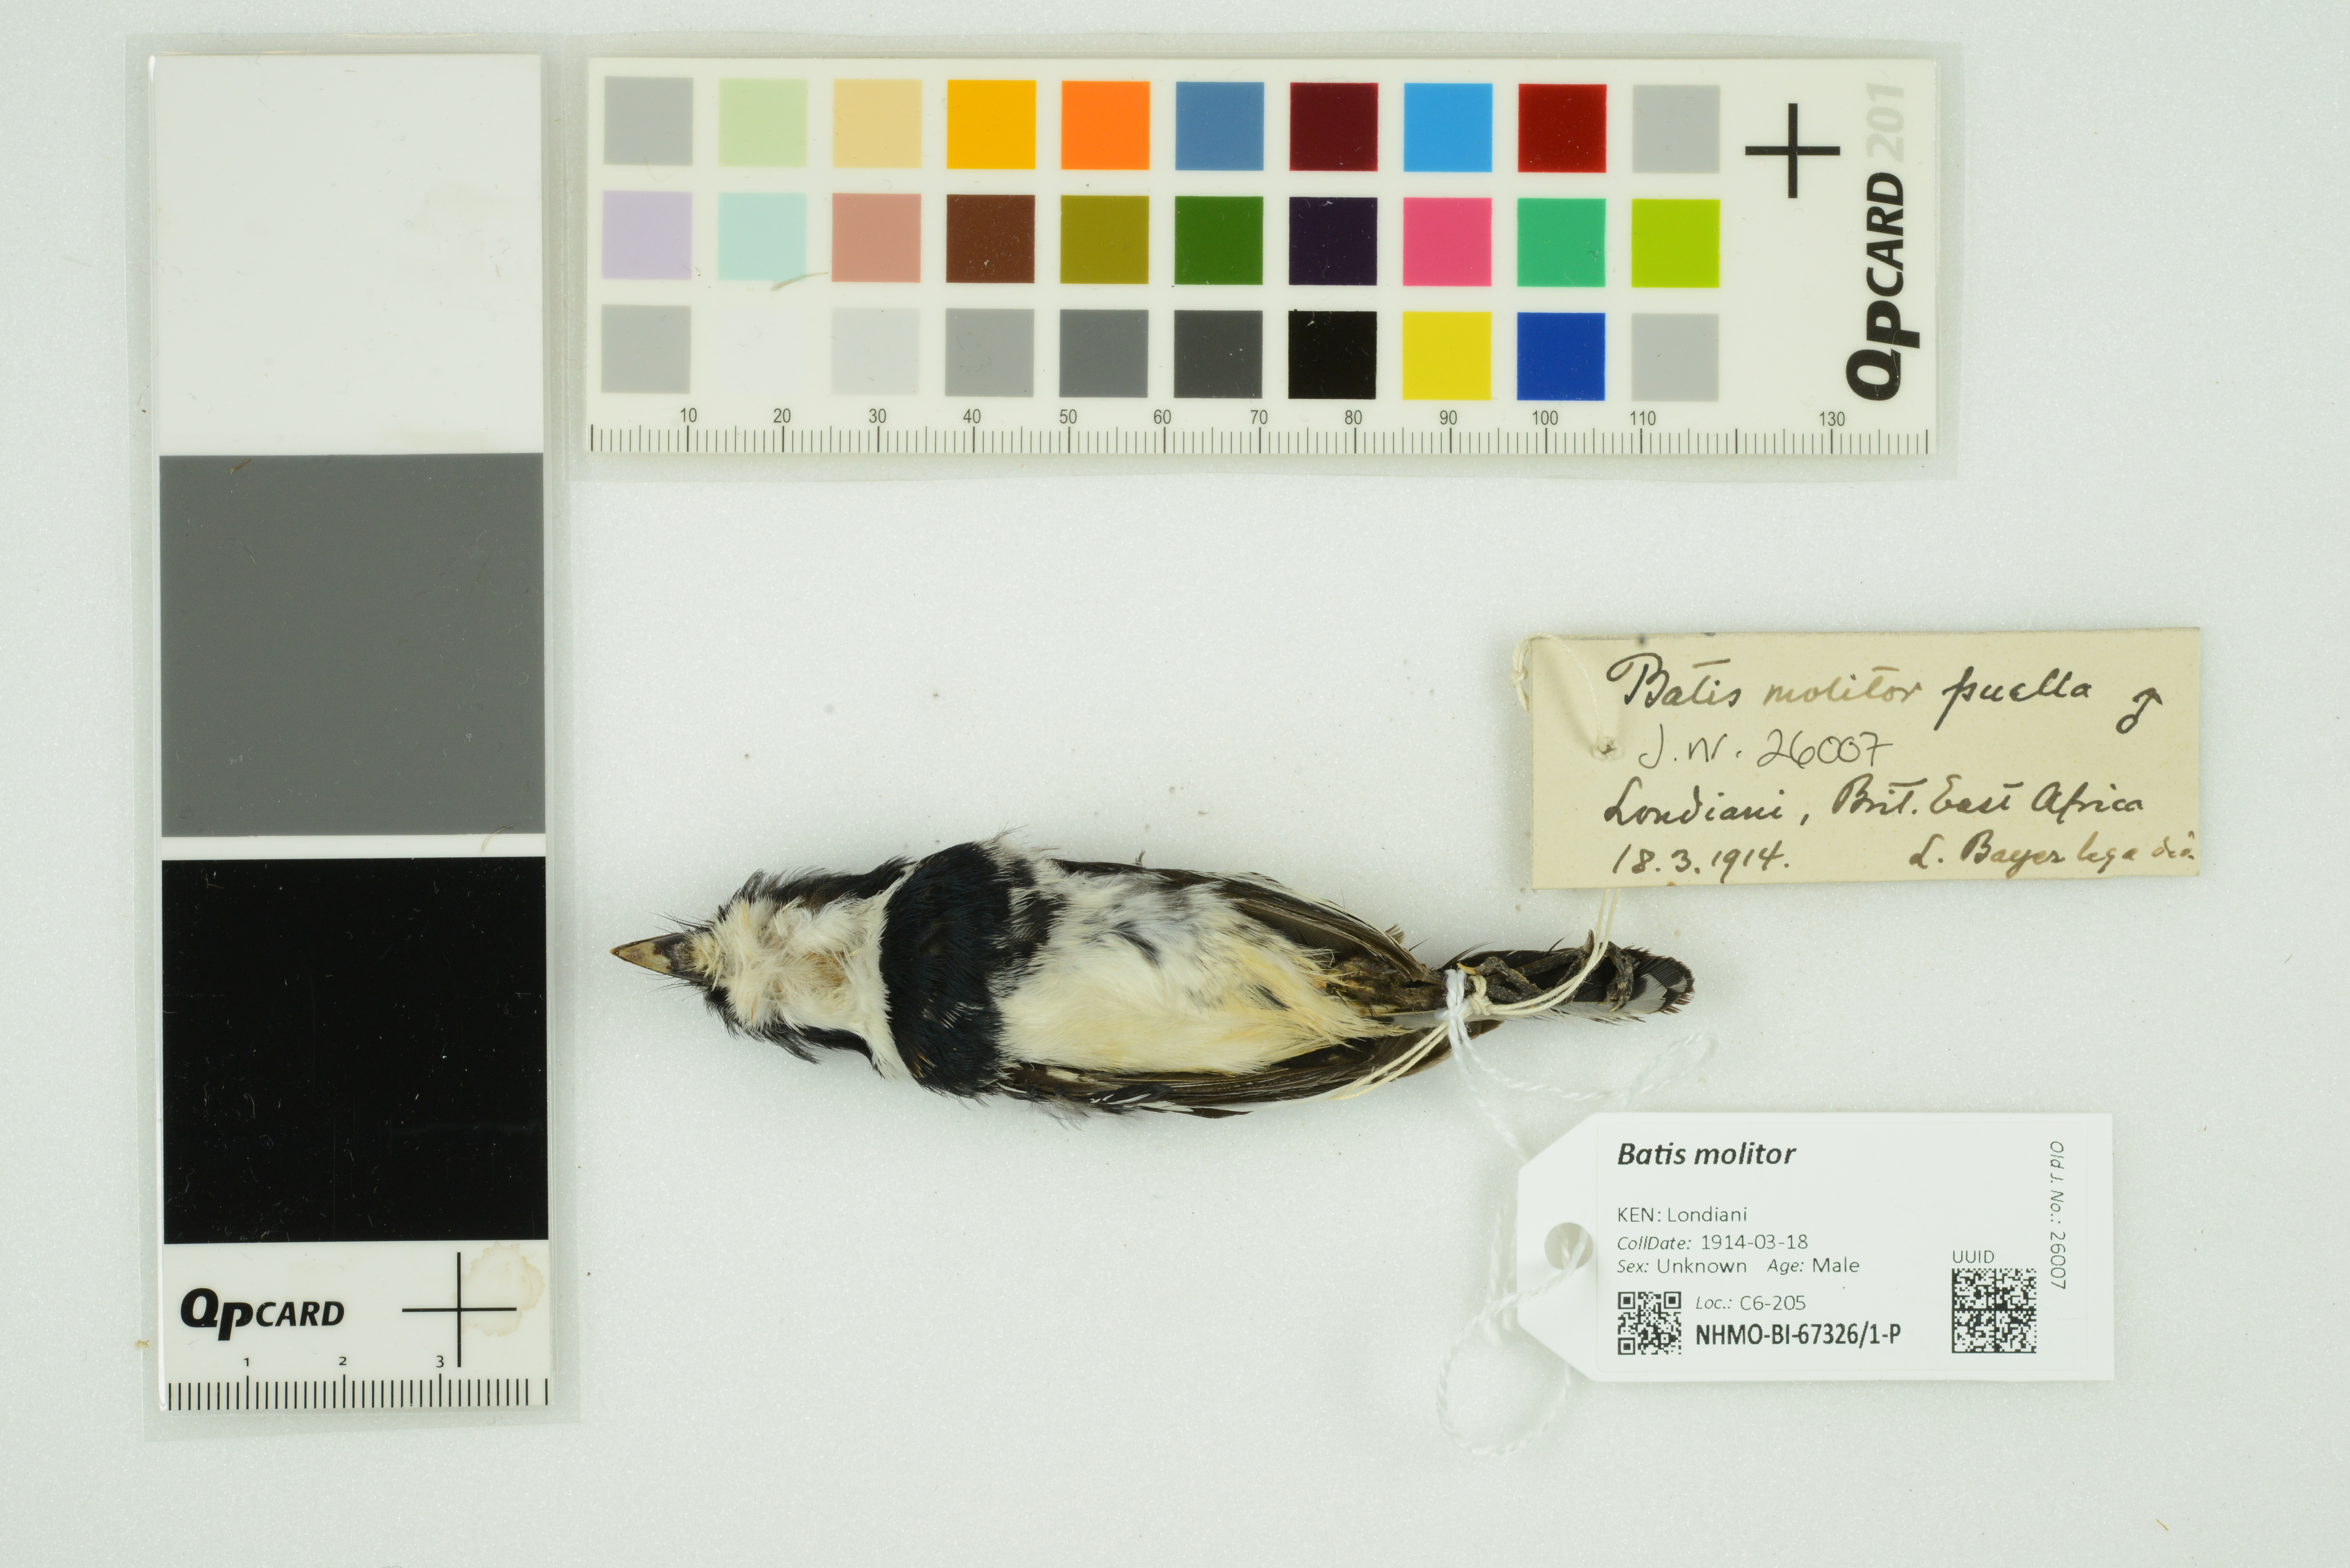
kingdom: Animalia
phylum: Chordata
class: Aves
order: Passeriformes
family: Platysteiridae
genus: Batis
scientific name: Batis molitor
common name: Chinspot batis
